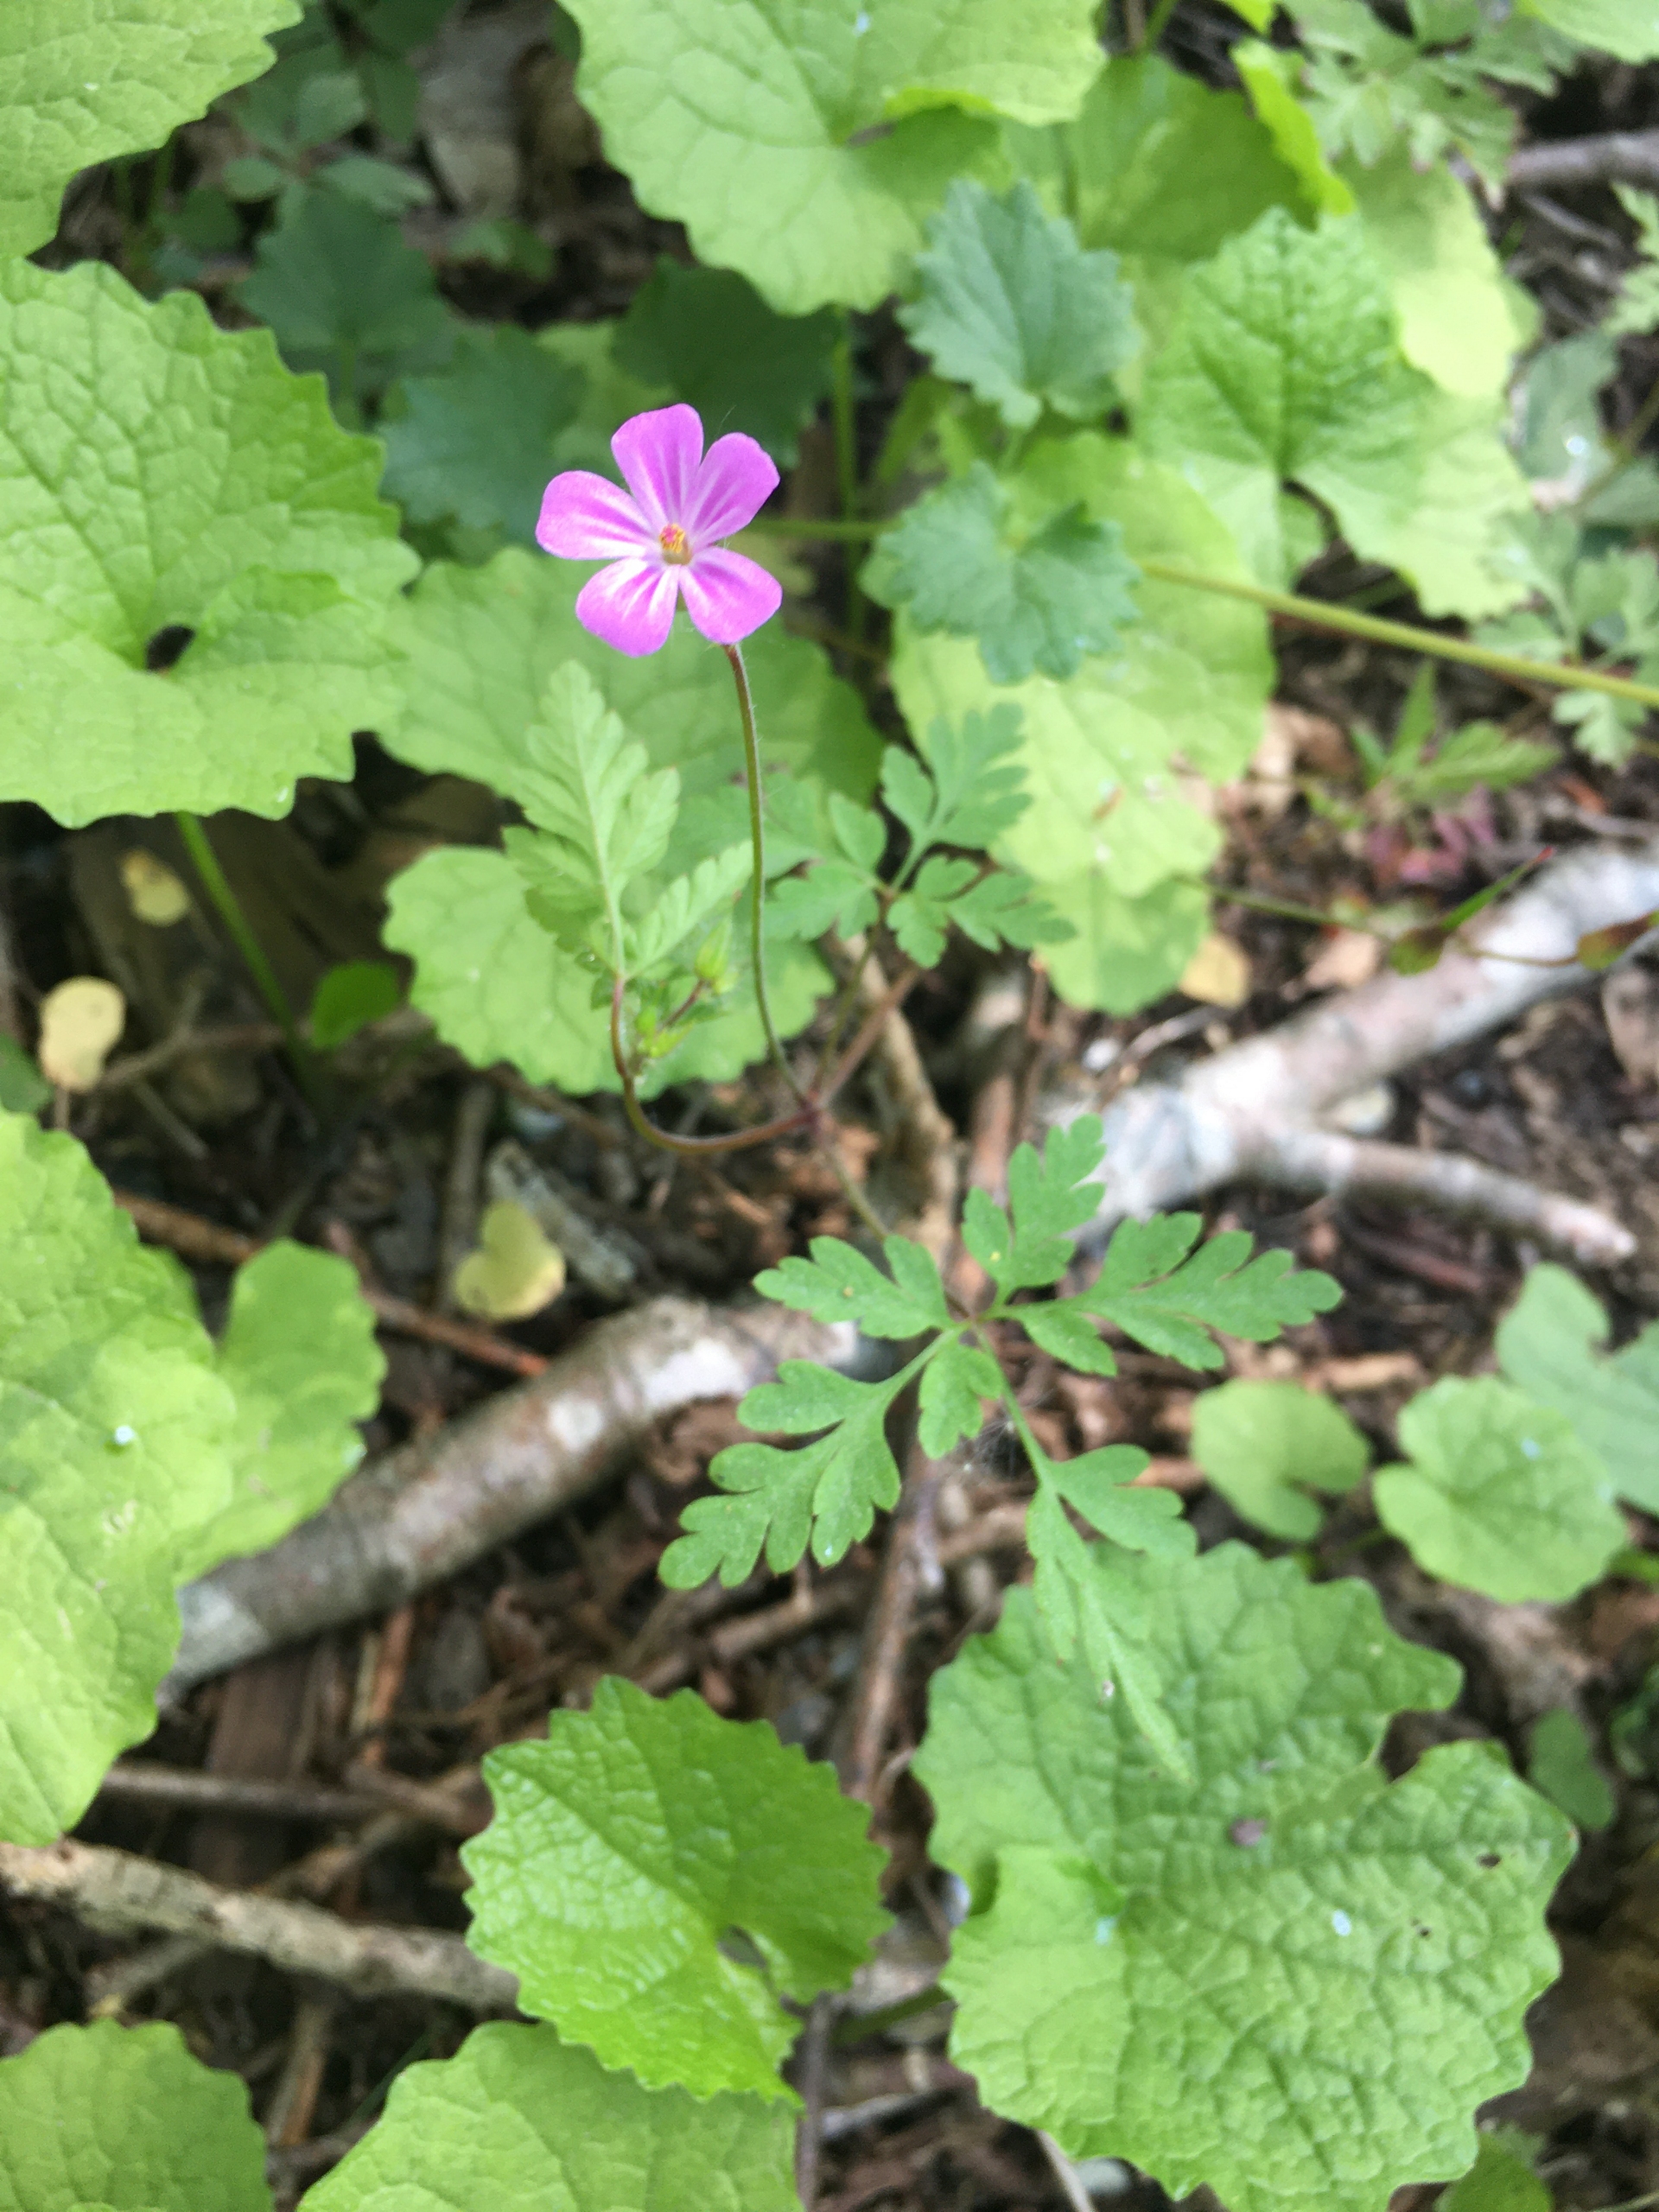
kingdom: Plantae
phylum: Tracheophyta
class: Magnoliopsida
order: Geraniales
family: Geraniaceae
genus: Geranium
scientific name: Geranium robertianum
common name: Stinkende storkenæb
